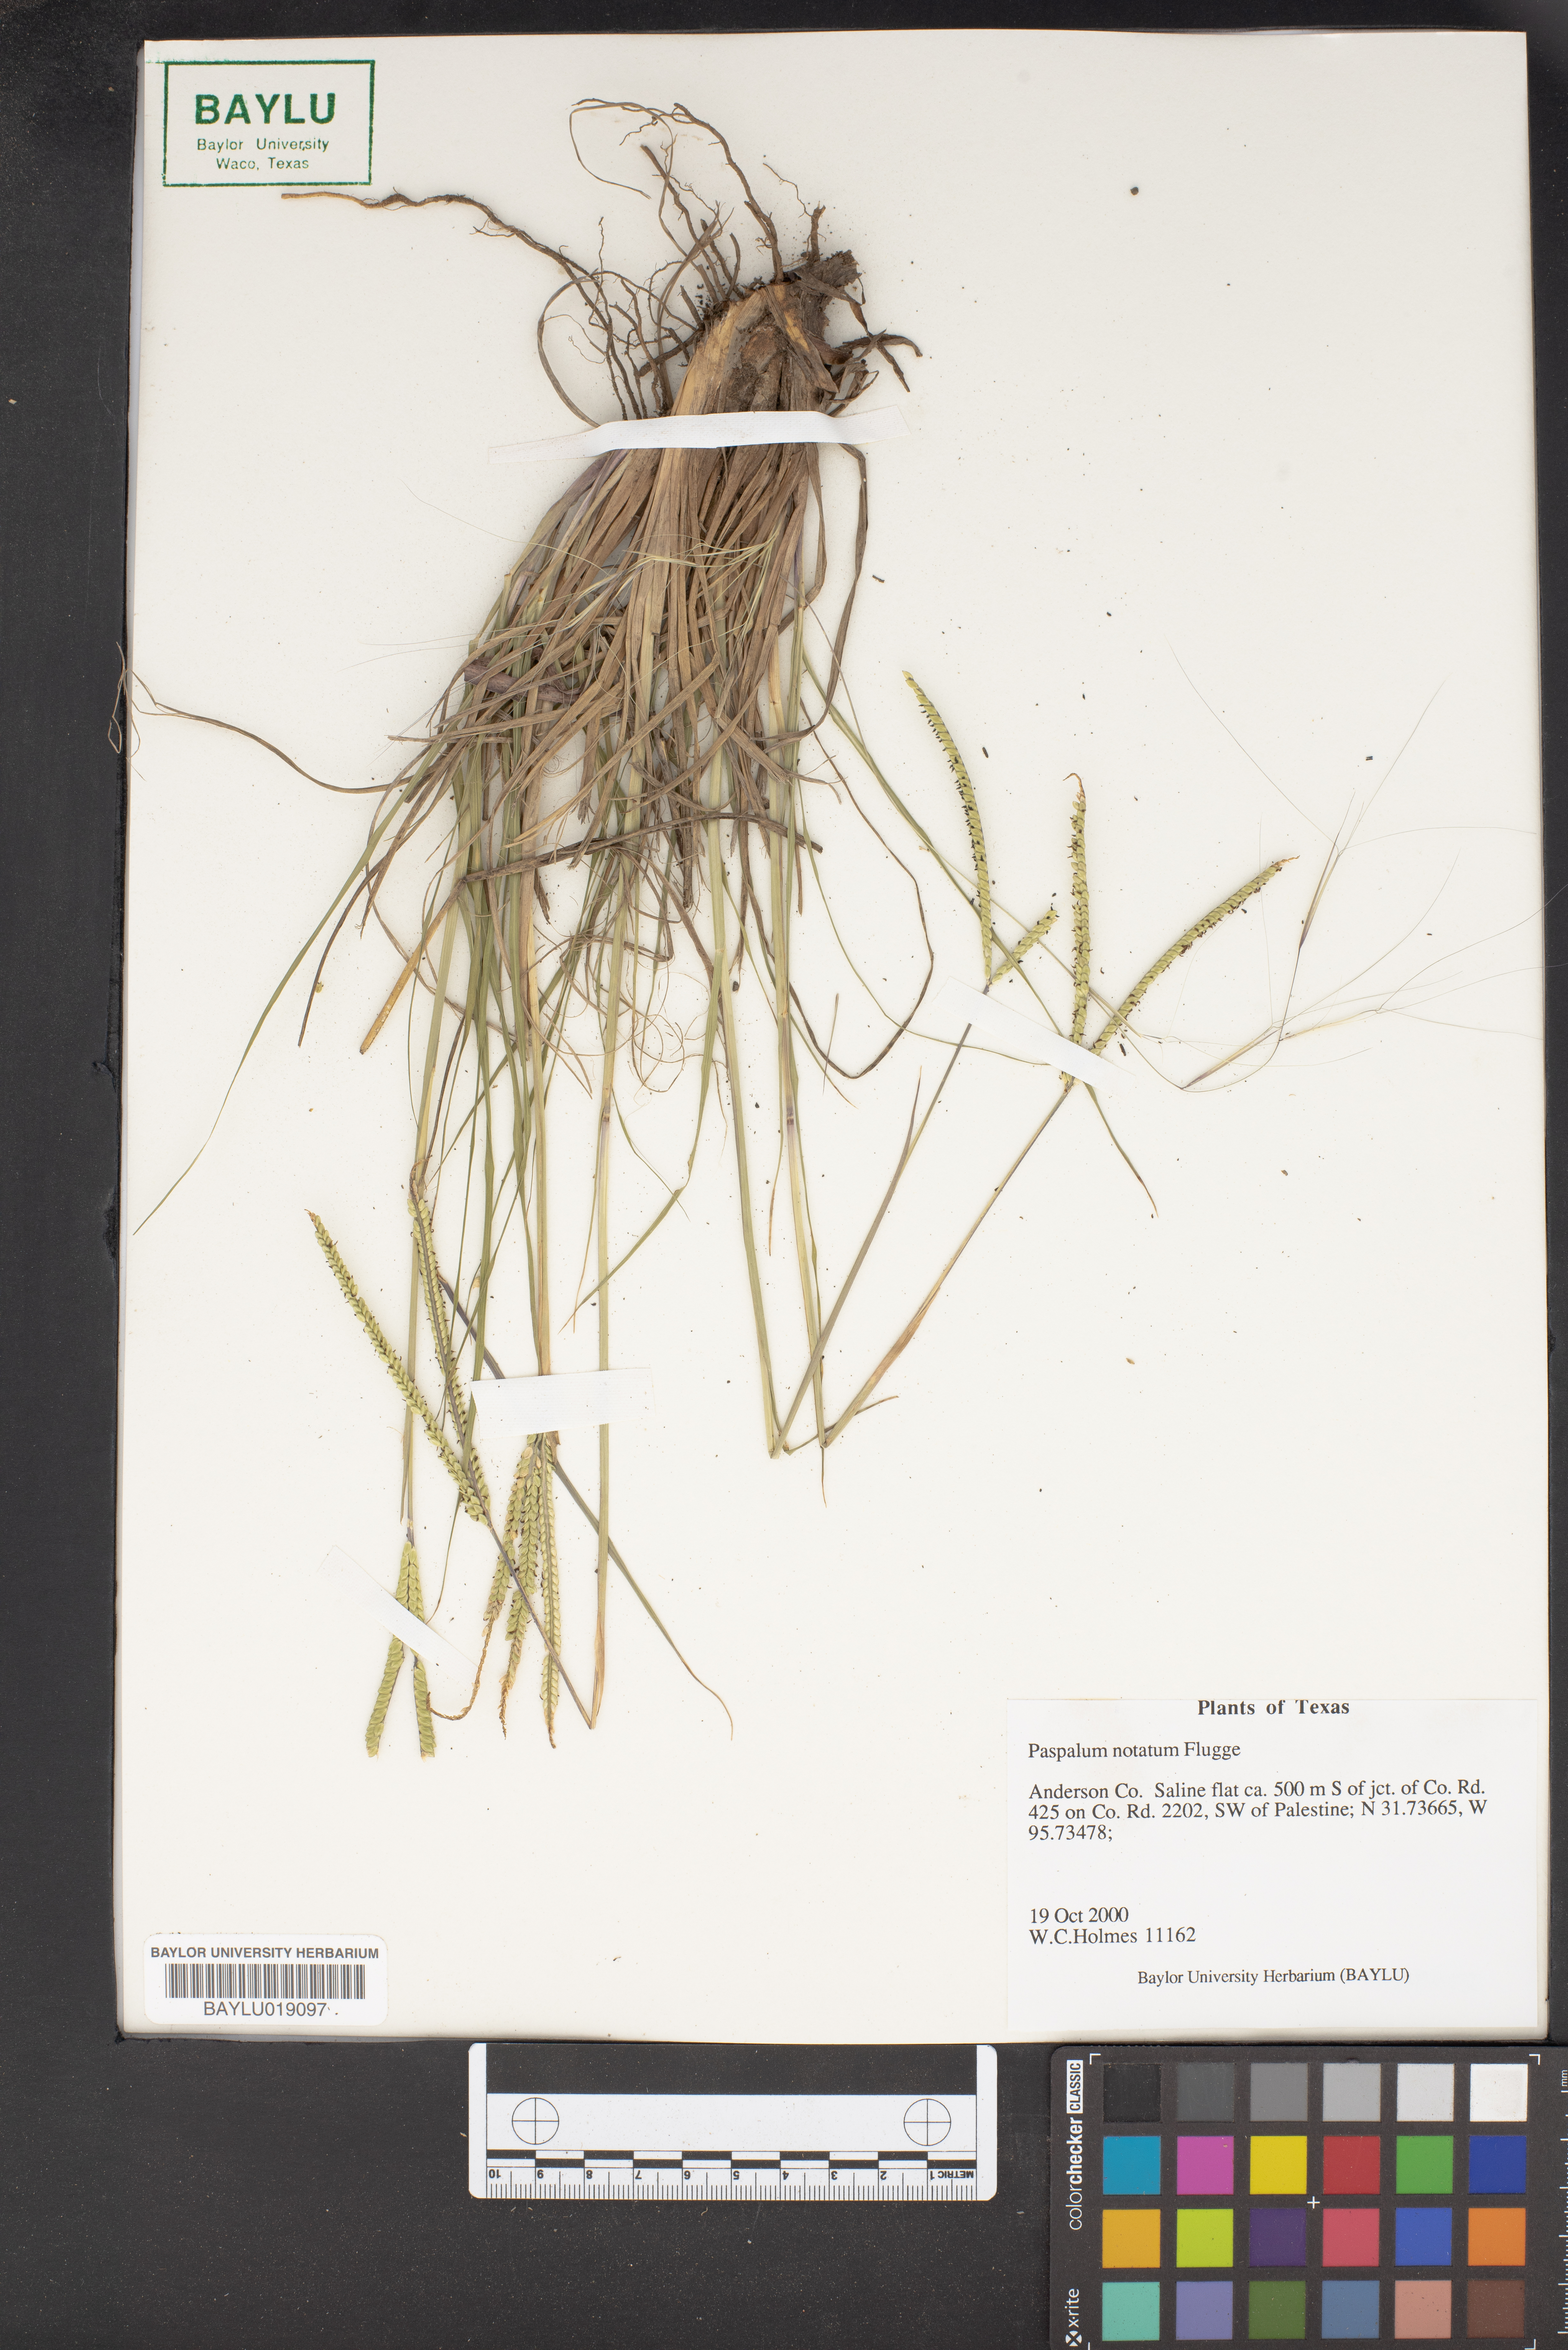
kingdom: Plantae
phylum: Tracheophyta
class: Liliopsida
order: Poales
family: Poaceae
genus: Paspalum
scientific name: Paspalum notatum
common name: Bahiagrass
